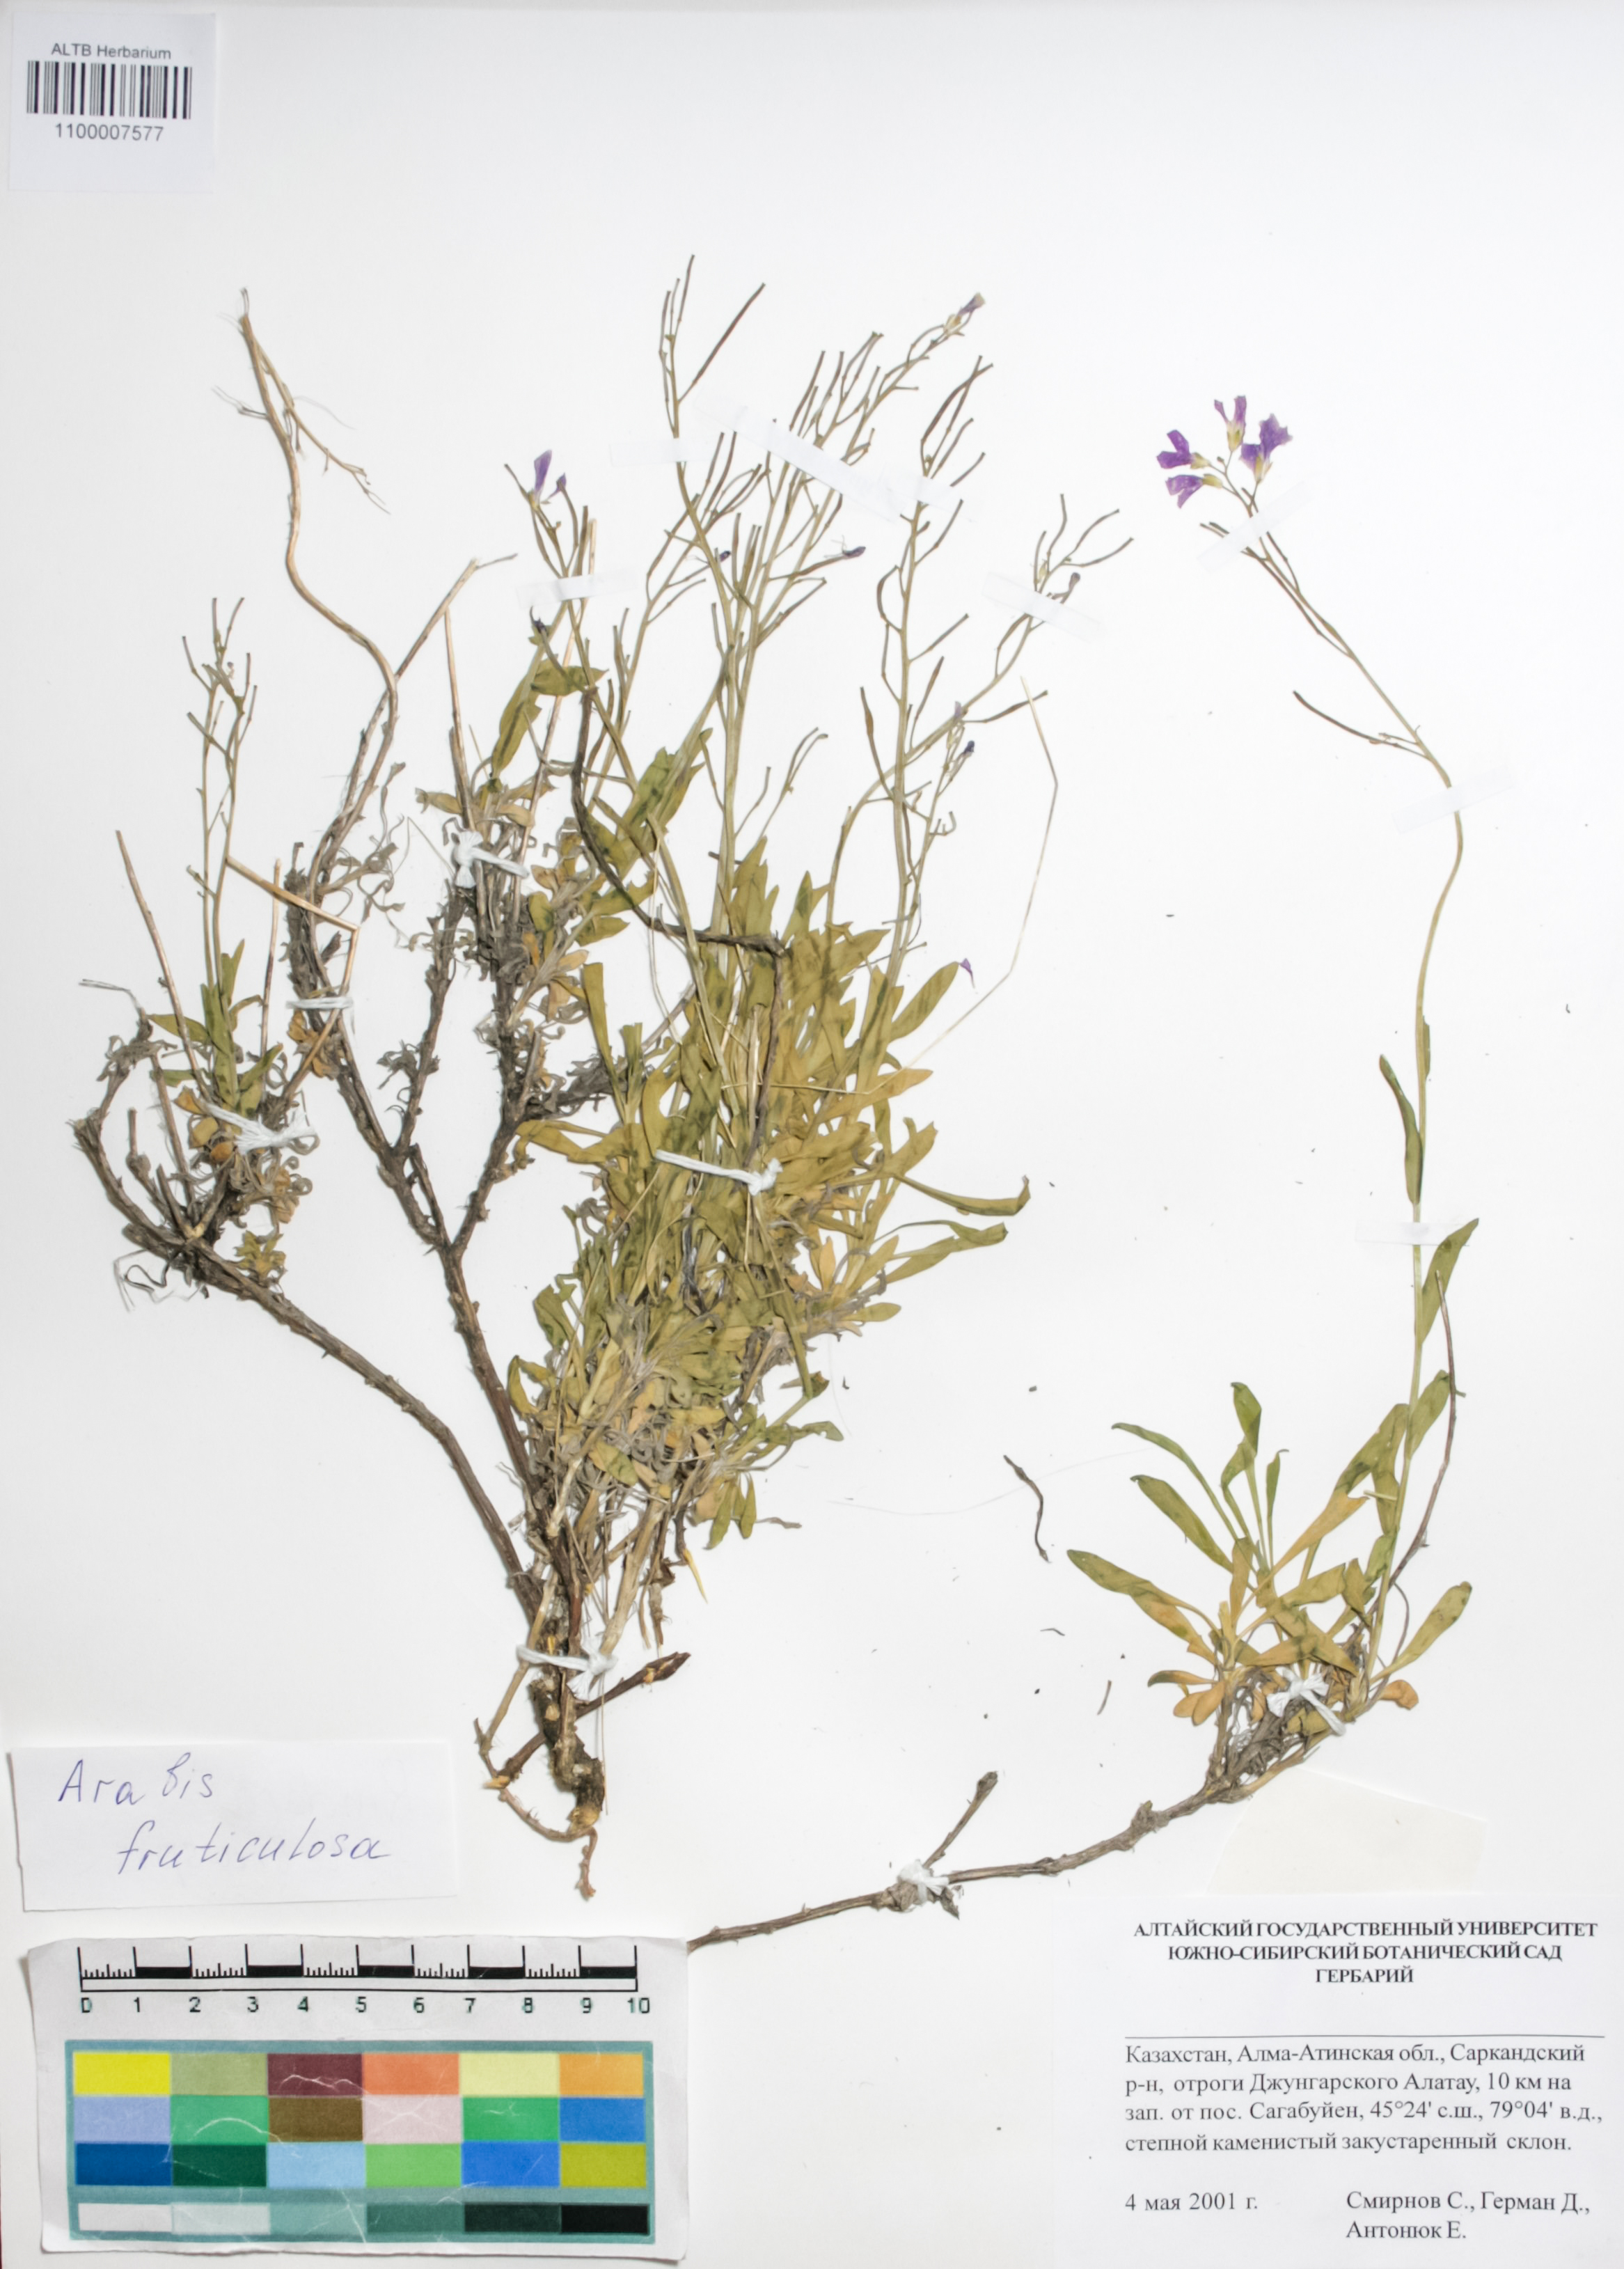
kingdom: Plantae
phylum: Tracheophyta
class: Magnoliopsida
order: Brassicales
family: Brassicaceae
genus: Dendroarabis
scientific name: Dendroarabis fruticulosa
